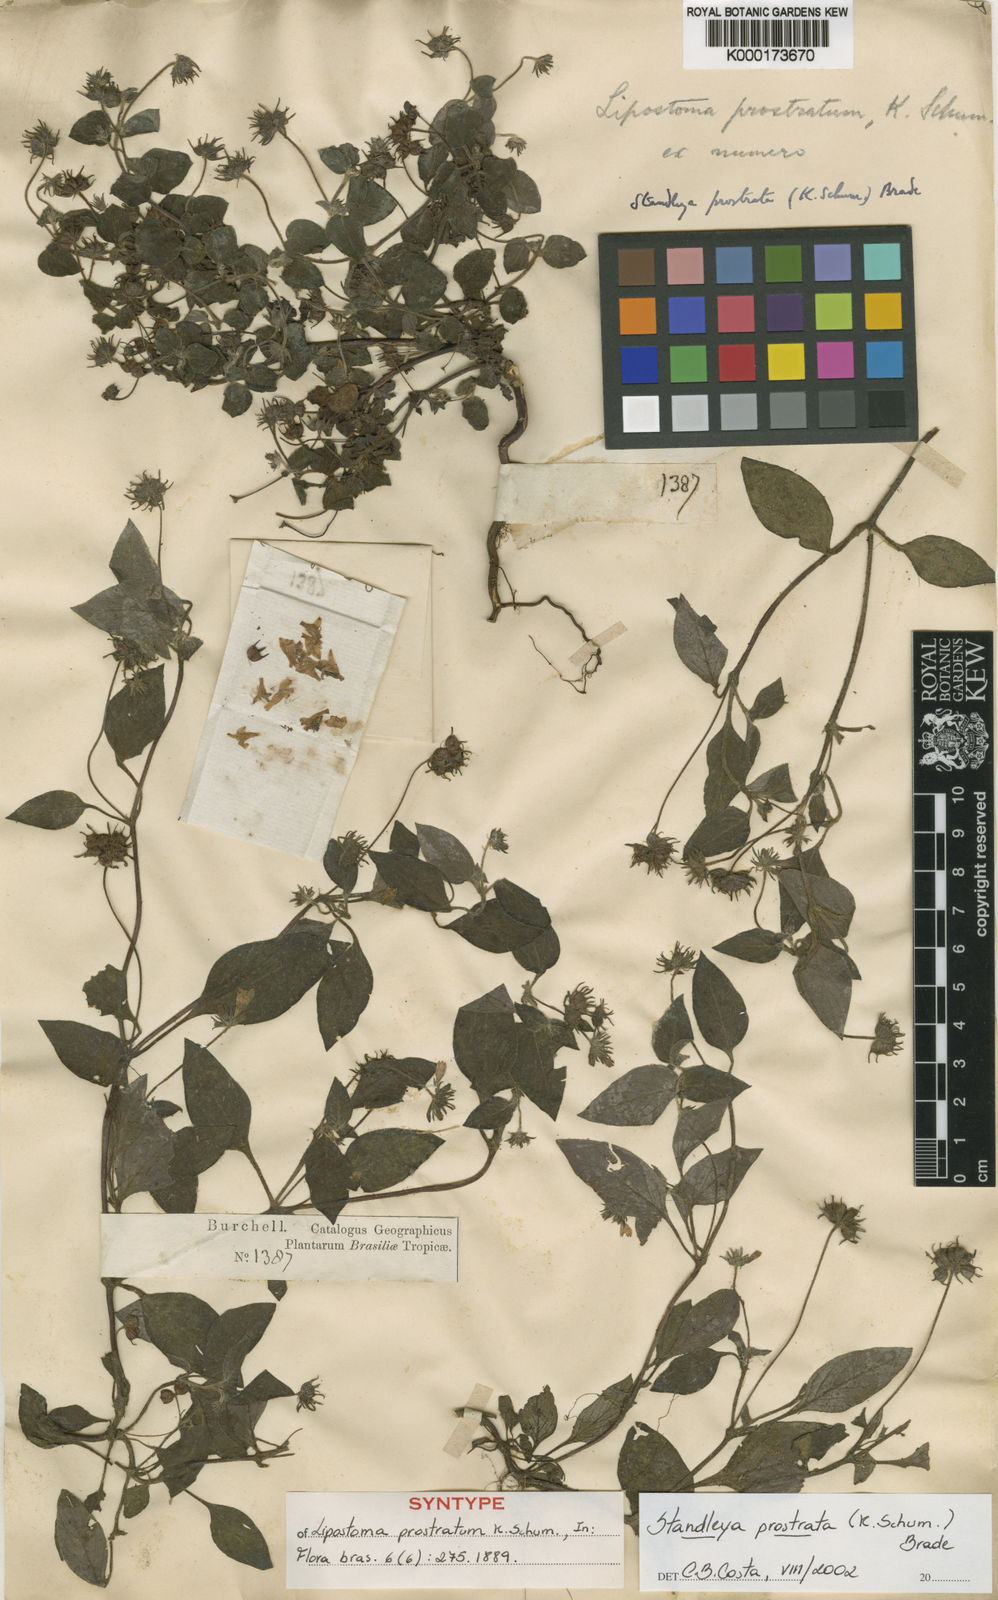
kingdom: Plantae
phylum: Tracheophyta
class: Magnoliopsida
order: Gentianales
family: Rubiaceae
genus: Standleya
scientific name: Standleya prostrata
